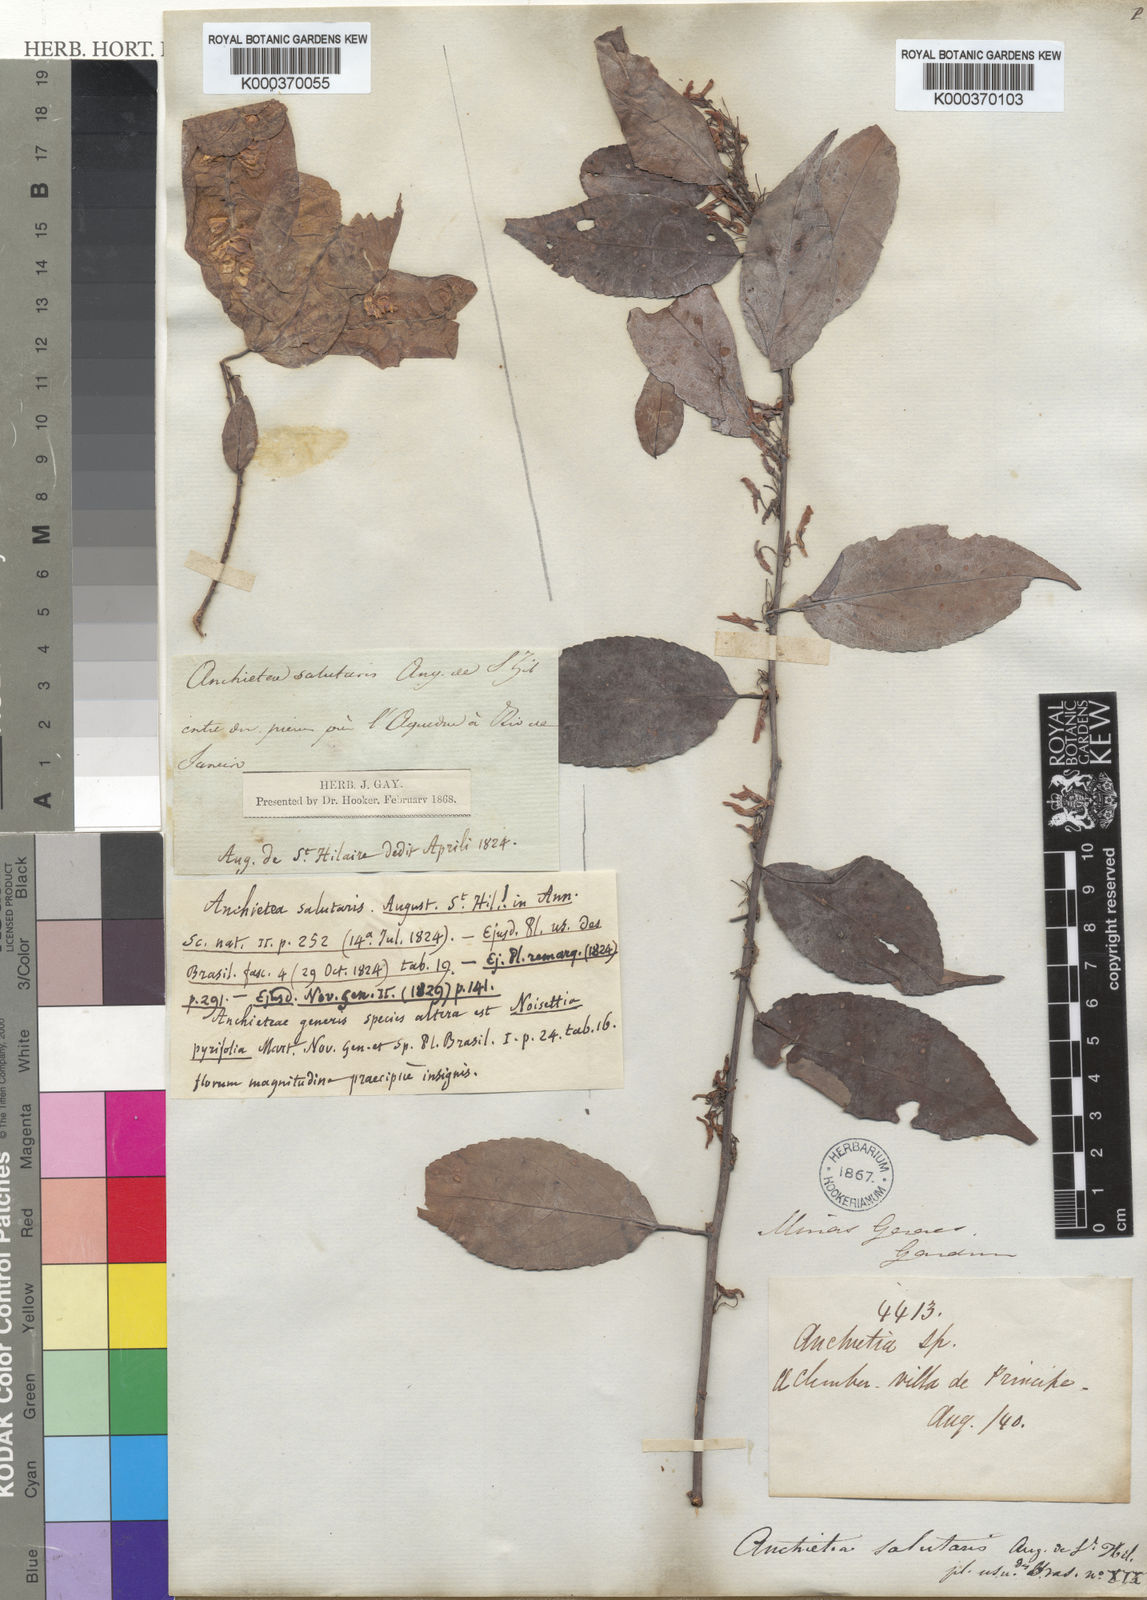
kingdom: Plantae
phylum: Tracheophyta
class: Magnoliopsida
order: Malpighiales
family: Violaceae
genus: Anchietea
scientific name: Anchietea pyrifolia
